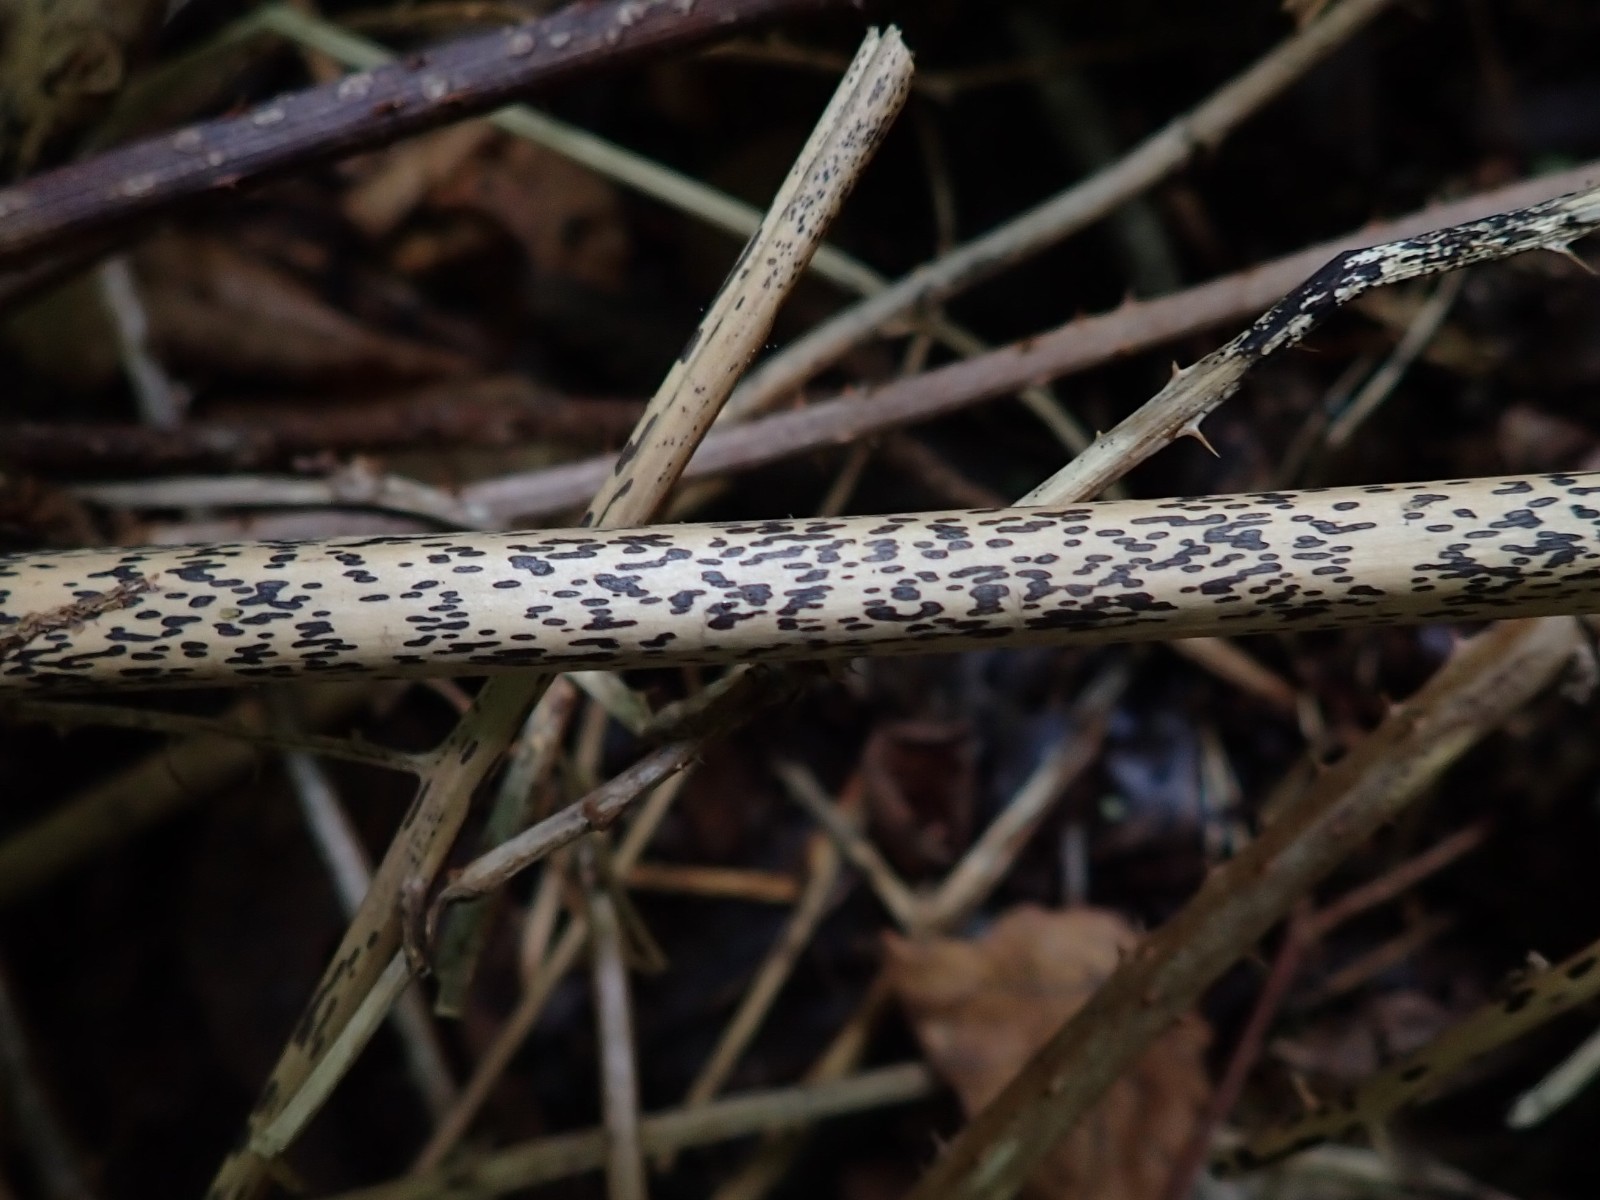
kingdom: Fungi
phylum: Ascomycota
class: Dothideomycetes
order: Pleosporales
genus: Rhopographus
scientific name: Rhopographus filicinus
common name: Bracken map
